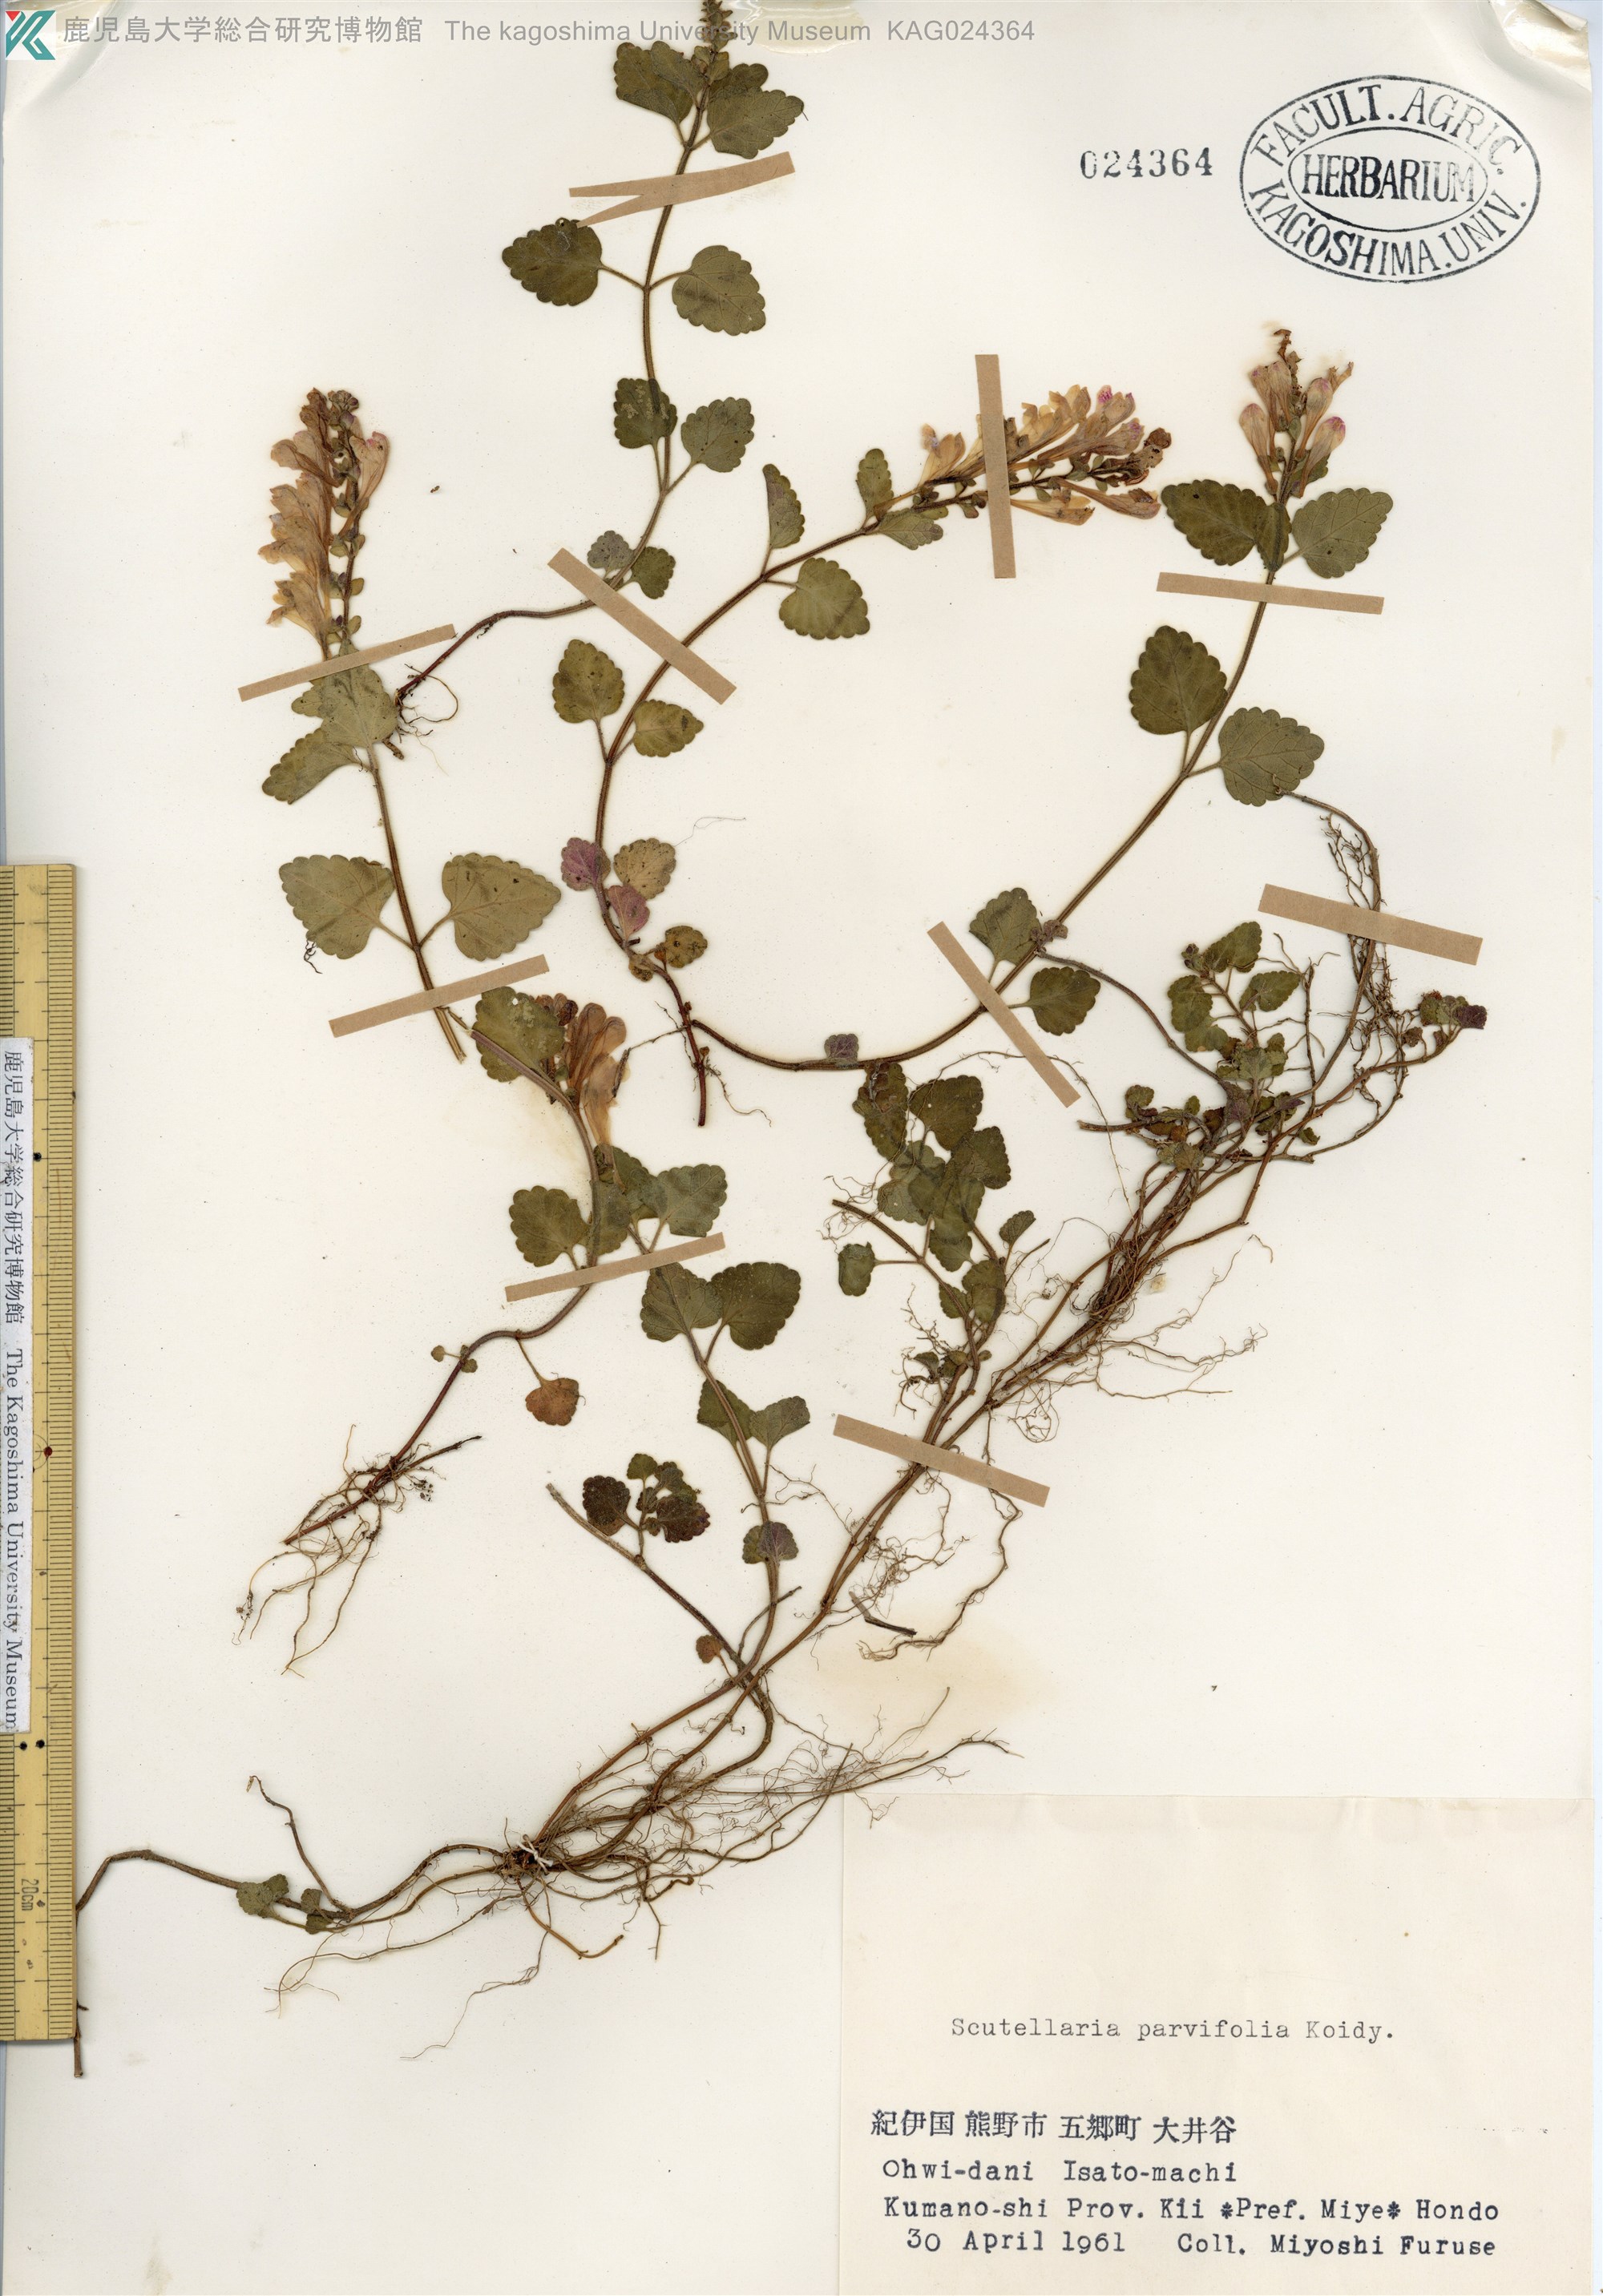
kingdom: Plantae
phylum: Tracheophyta
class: Magnoliopsida
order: Lamiales
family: Lamiaceae
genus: Scutellaria
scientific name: Scutellaria indica
